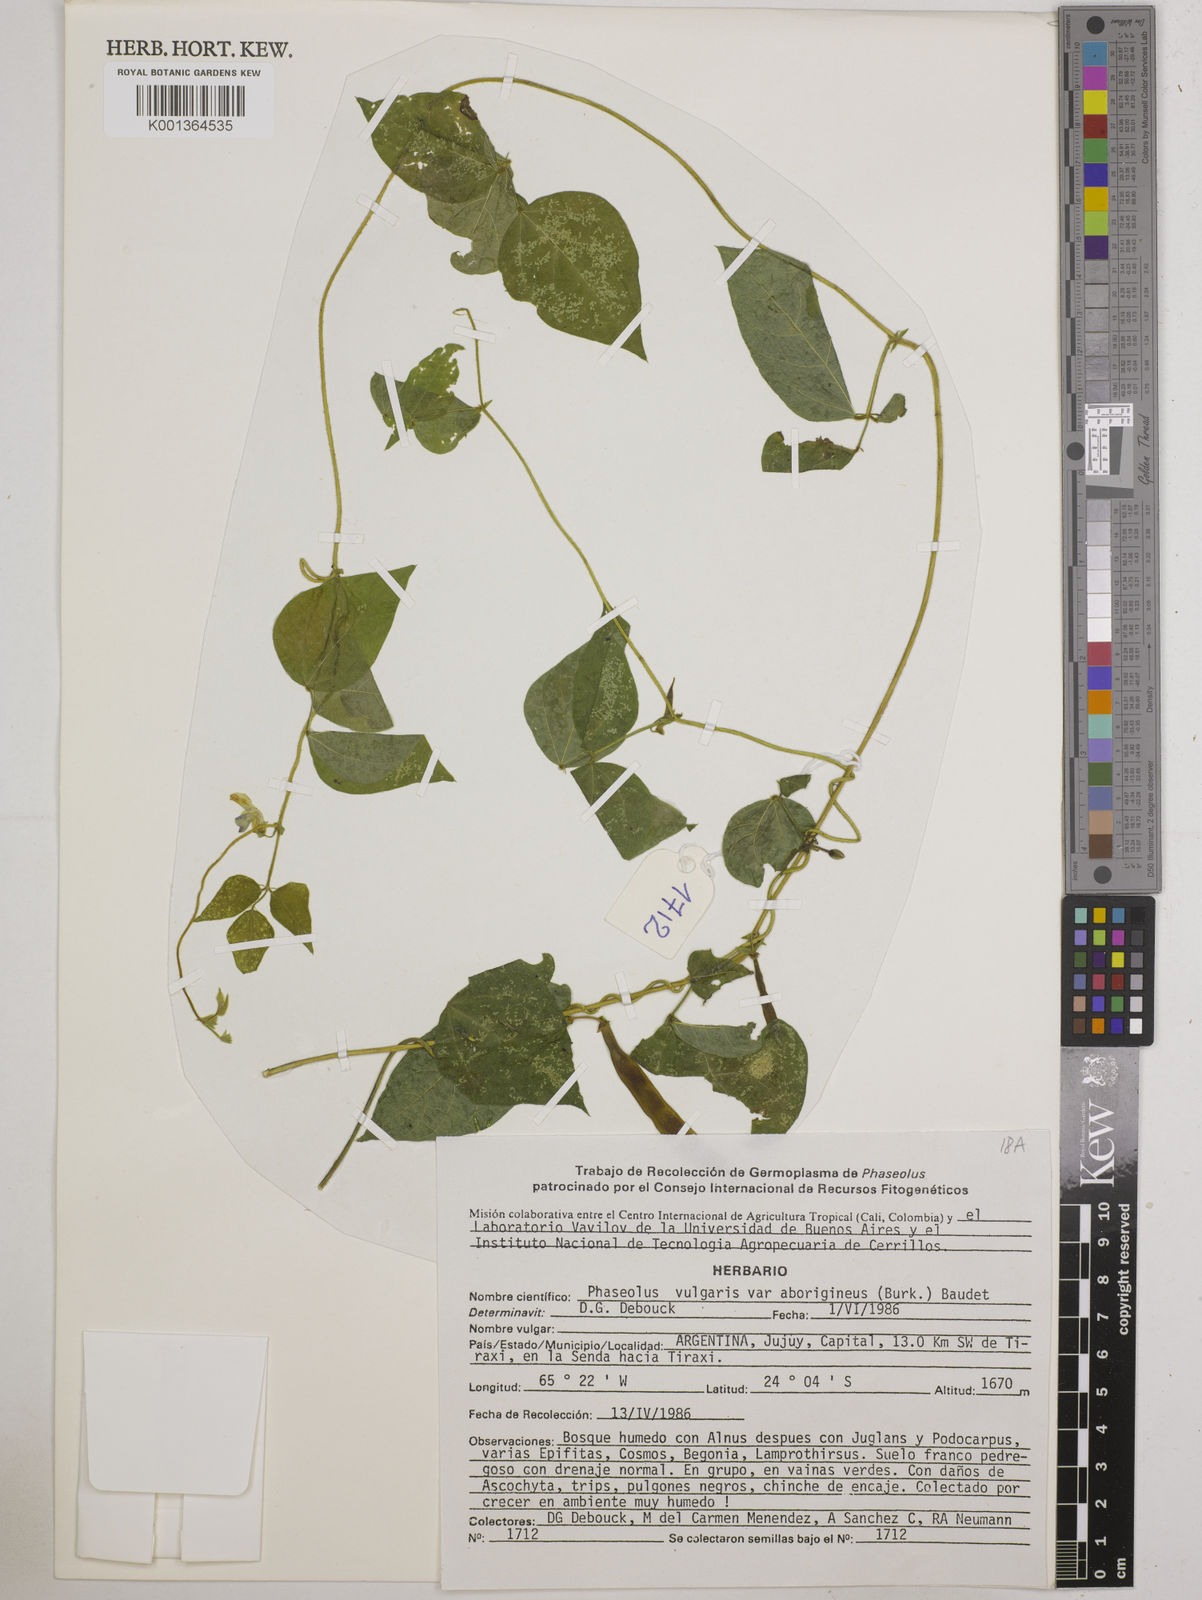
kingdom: Plantae
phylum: Tracheophyta
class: Magnoliopsida
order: Fabales
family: Fabaceae
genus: Phaseolus
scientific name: Phaseolus vulgaris
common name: Bean
